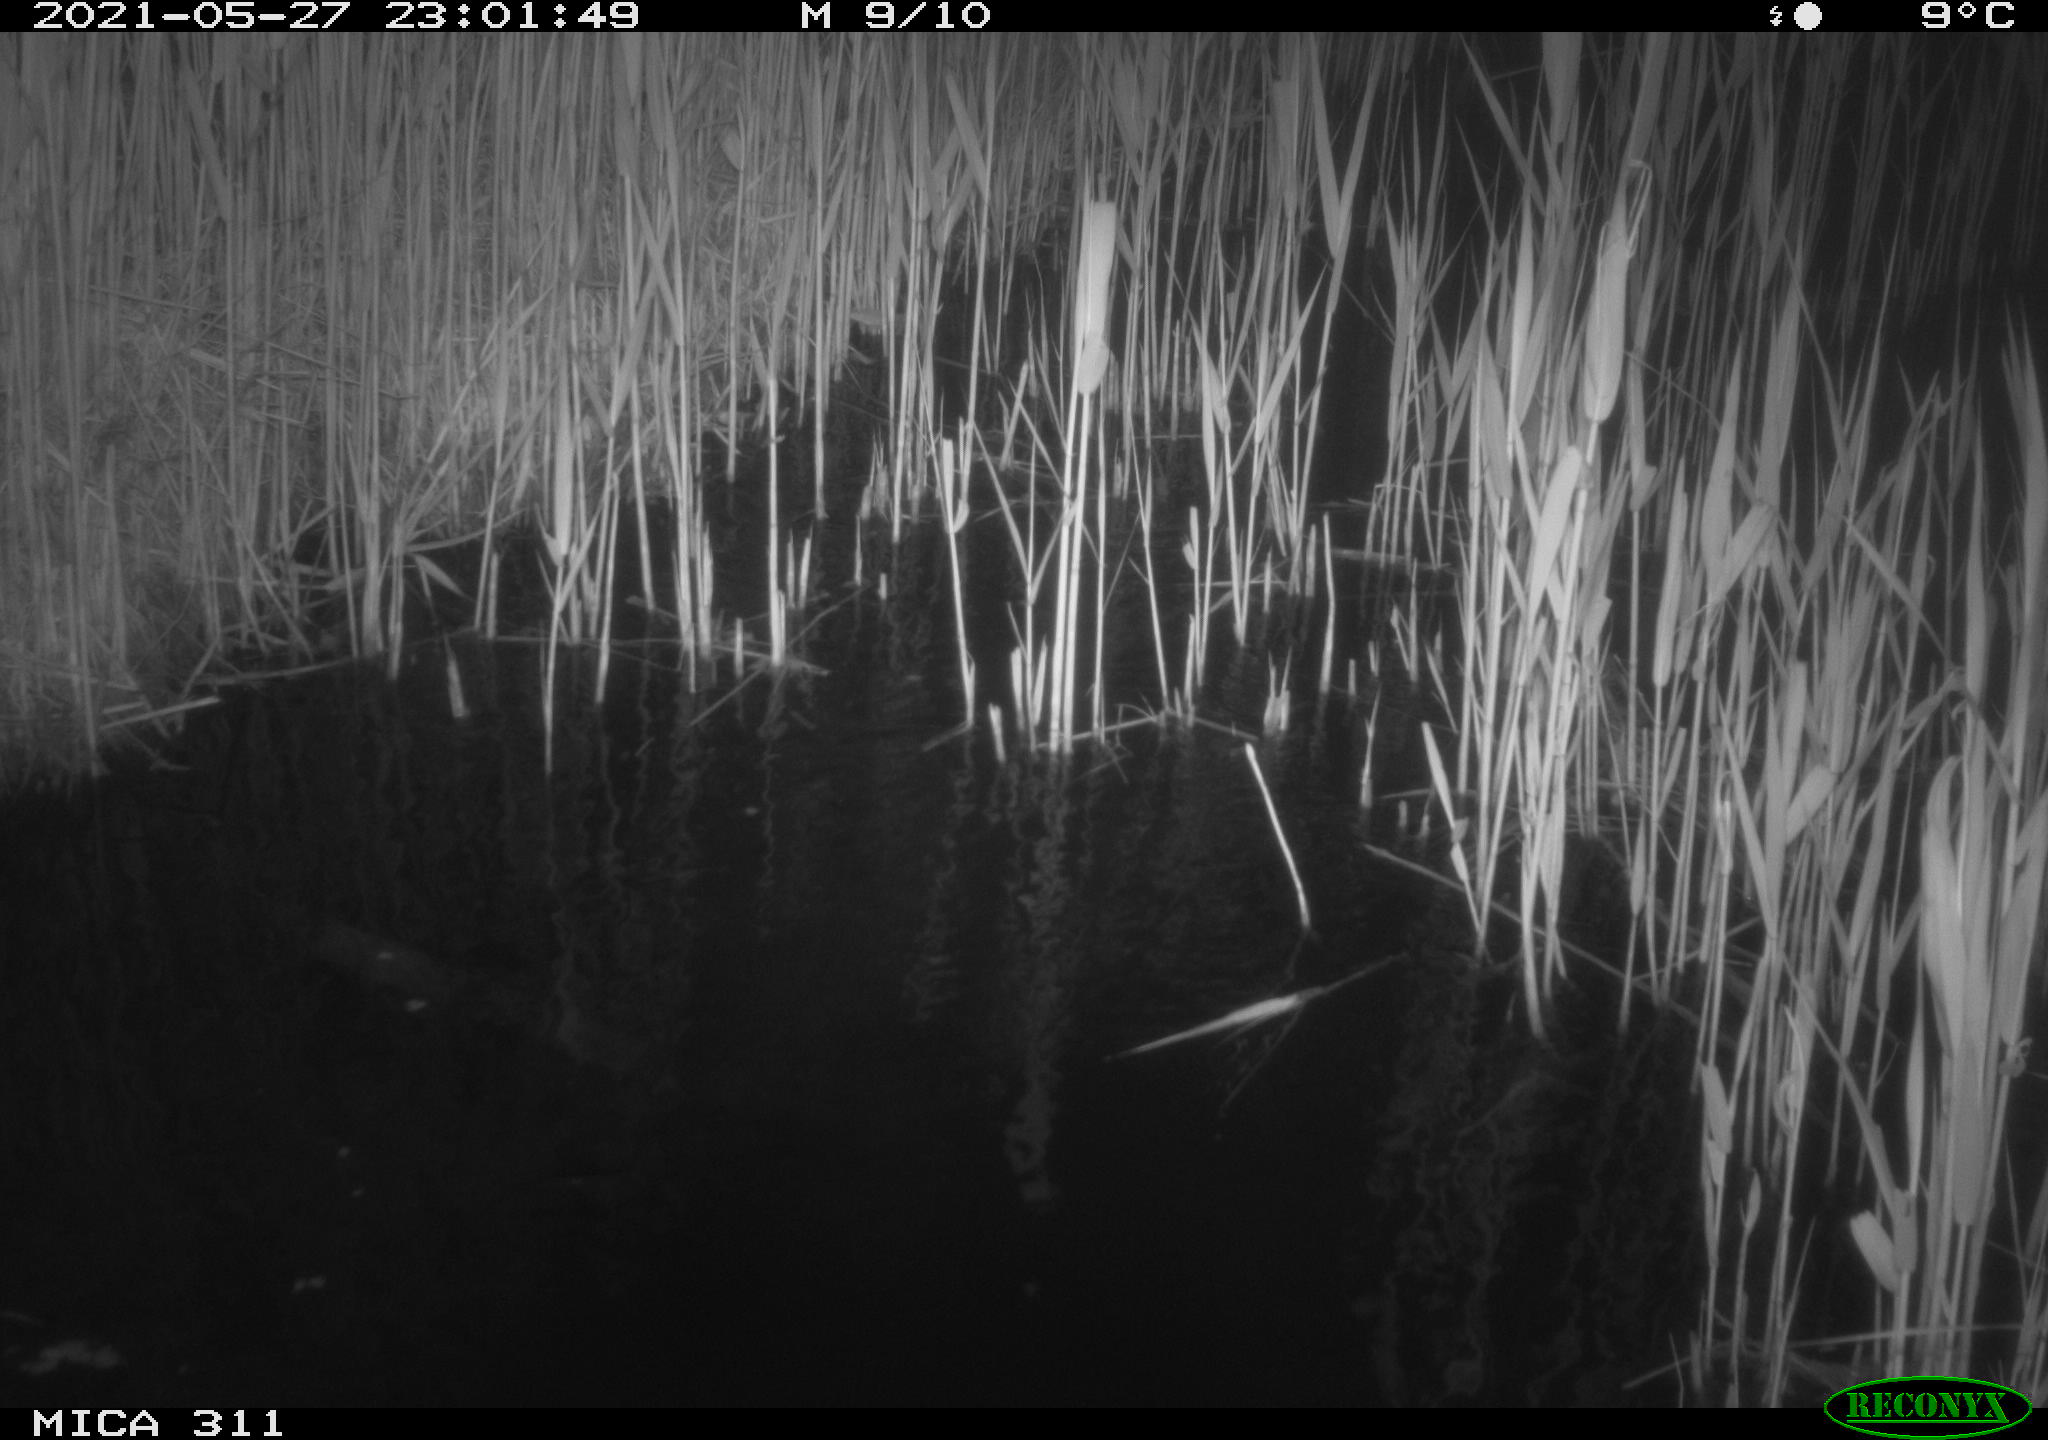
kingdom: Animalia
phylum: Chordata
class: Aves
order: Anseriformes
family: Anatidae
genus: Anas
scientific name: Anas platyrhynchos
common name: Mallard
